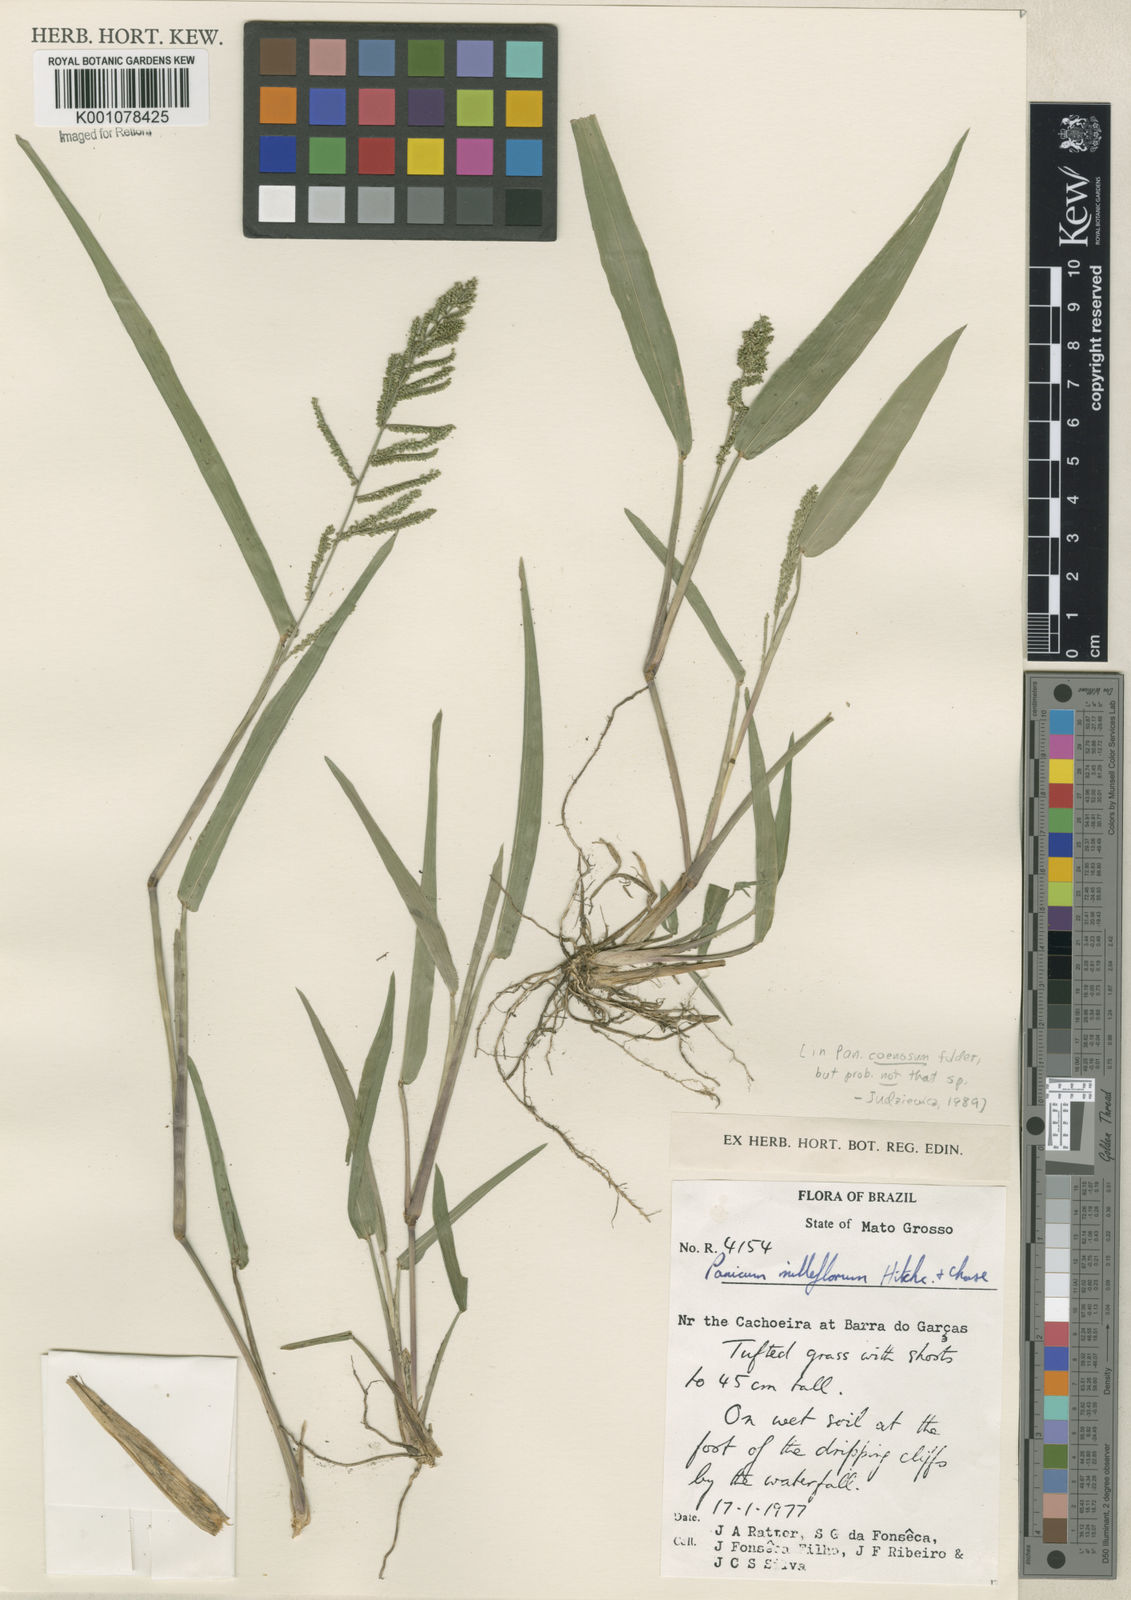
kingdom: Plantae
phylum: Tracheophyta
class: Liliopsida
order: Poales
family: Poaceae
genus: Rugoloa
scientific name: Rugoloa pilosa
